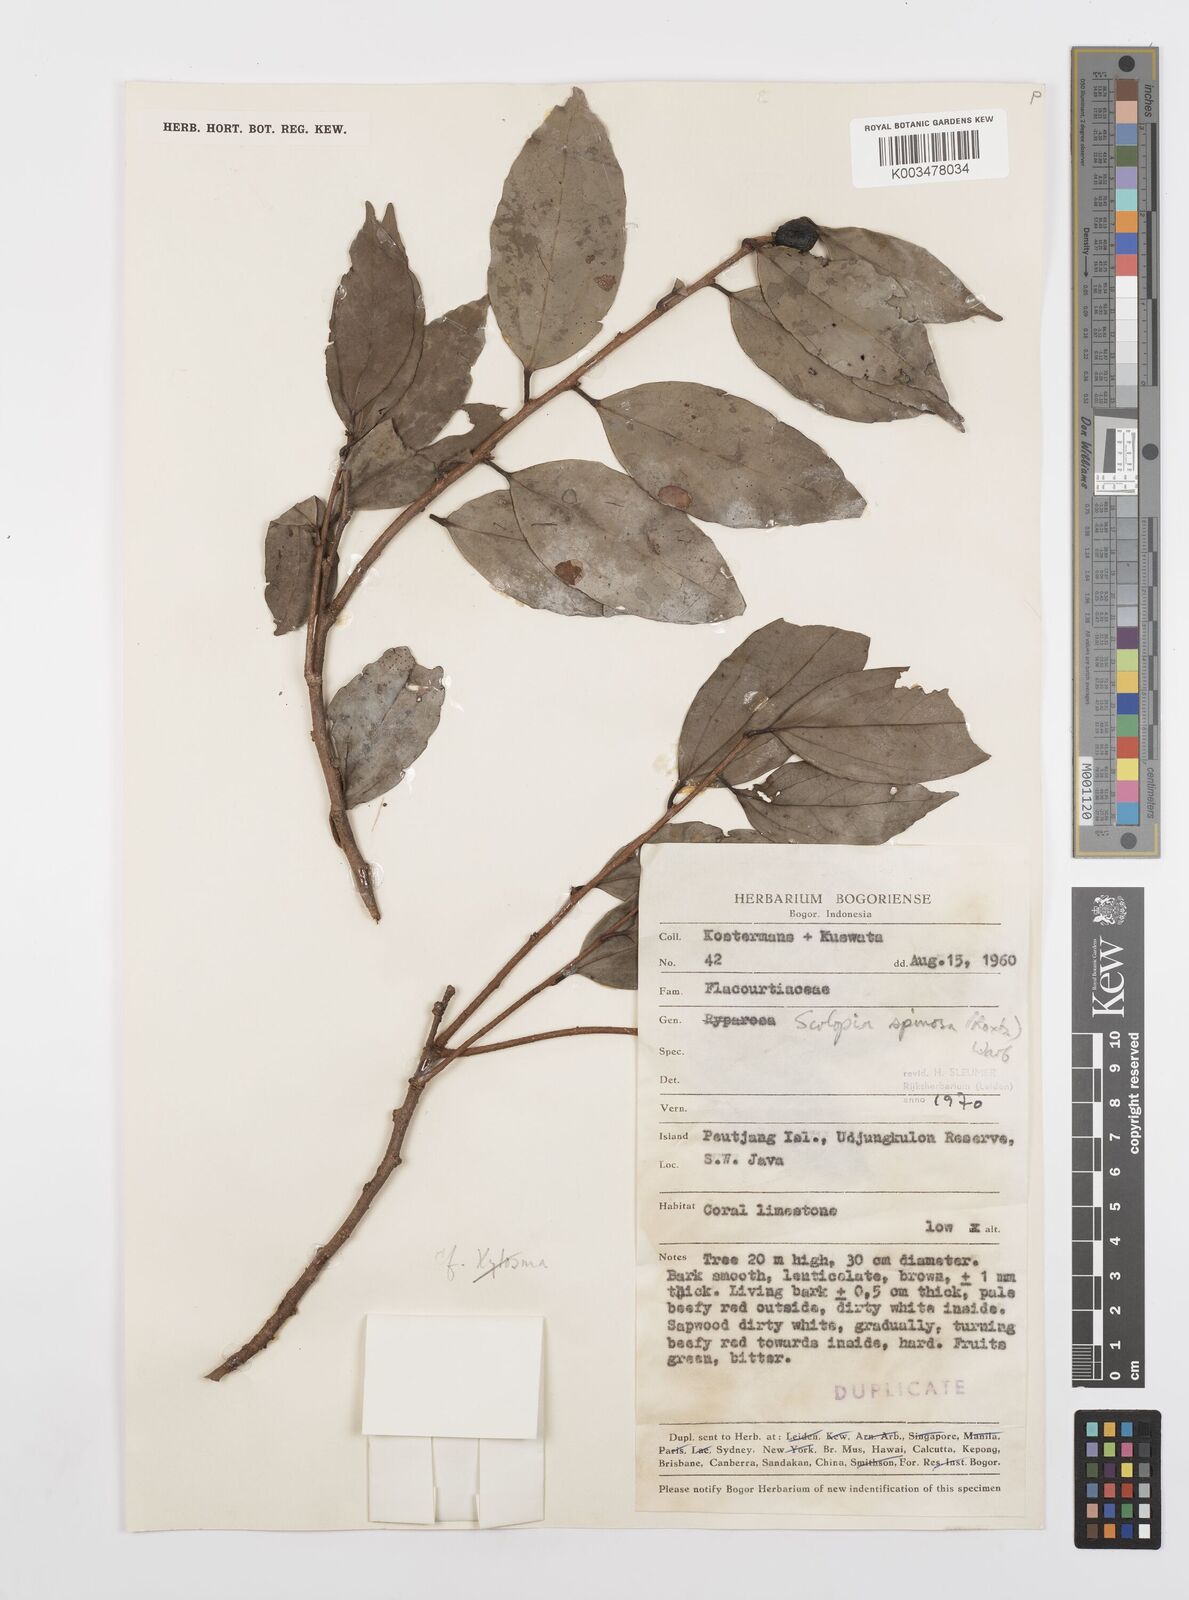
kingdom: Plantae
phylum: Tracheophyta
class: Magnoliopsida
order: Malpighiales
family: Salicaceae
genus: Scolopia
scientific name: Scolopia spinosa
